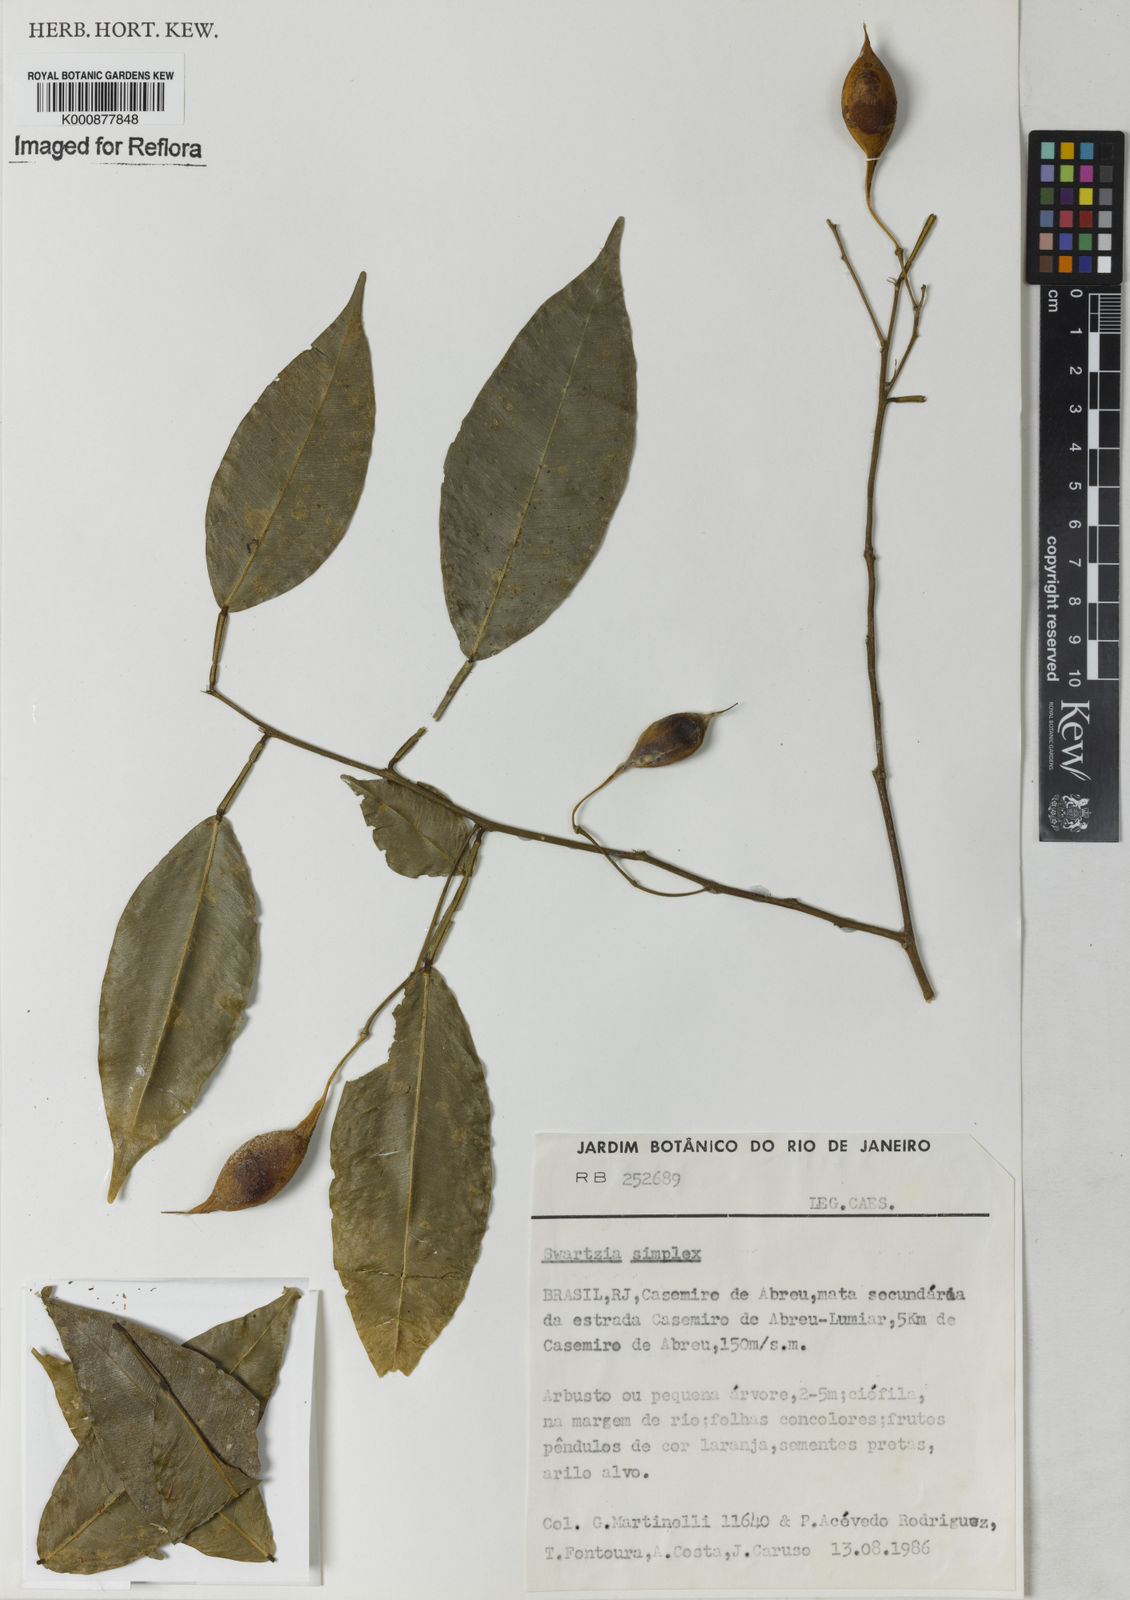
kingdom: Plantae
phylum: Tracheophyta
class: Magnoliopsida
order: Fabales
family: Fabaceae
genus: Swartzia
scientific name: Swartzia simplex
